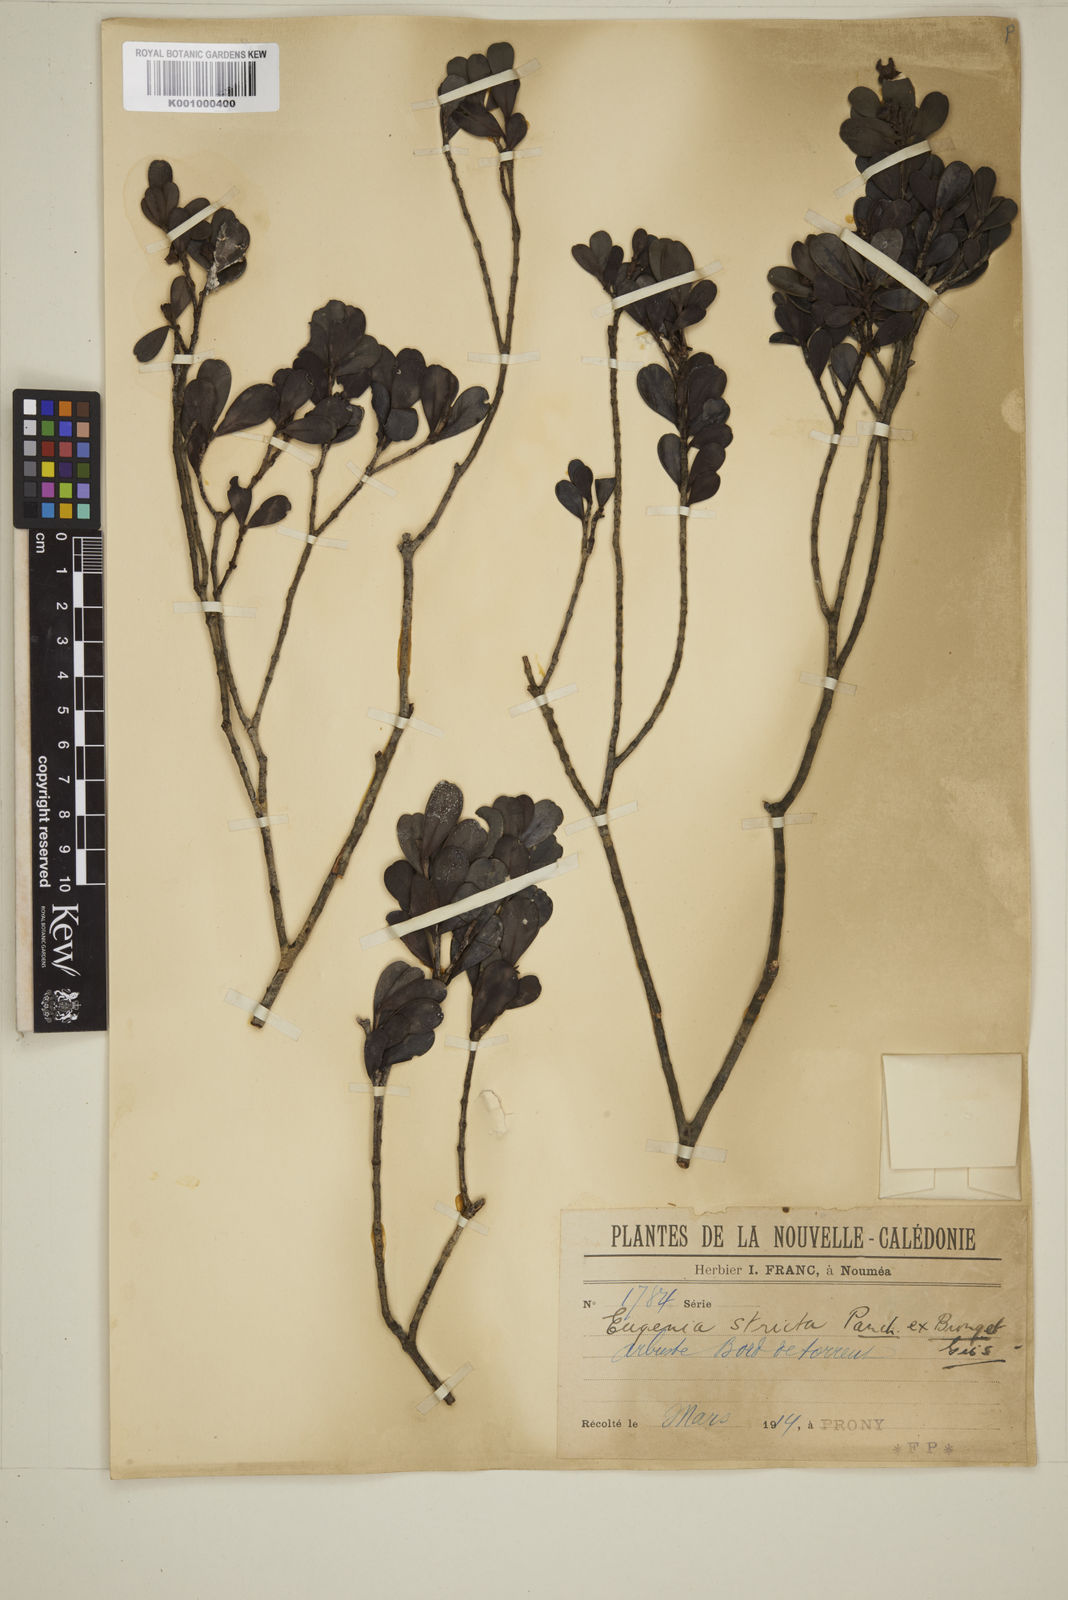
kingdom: Plantae
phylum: Tracheophyta
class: Magnoliopsida
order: Myrtales
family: Myrtaceae
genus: Austromyrtus
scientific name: Austromyrtus stricta
